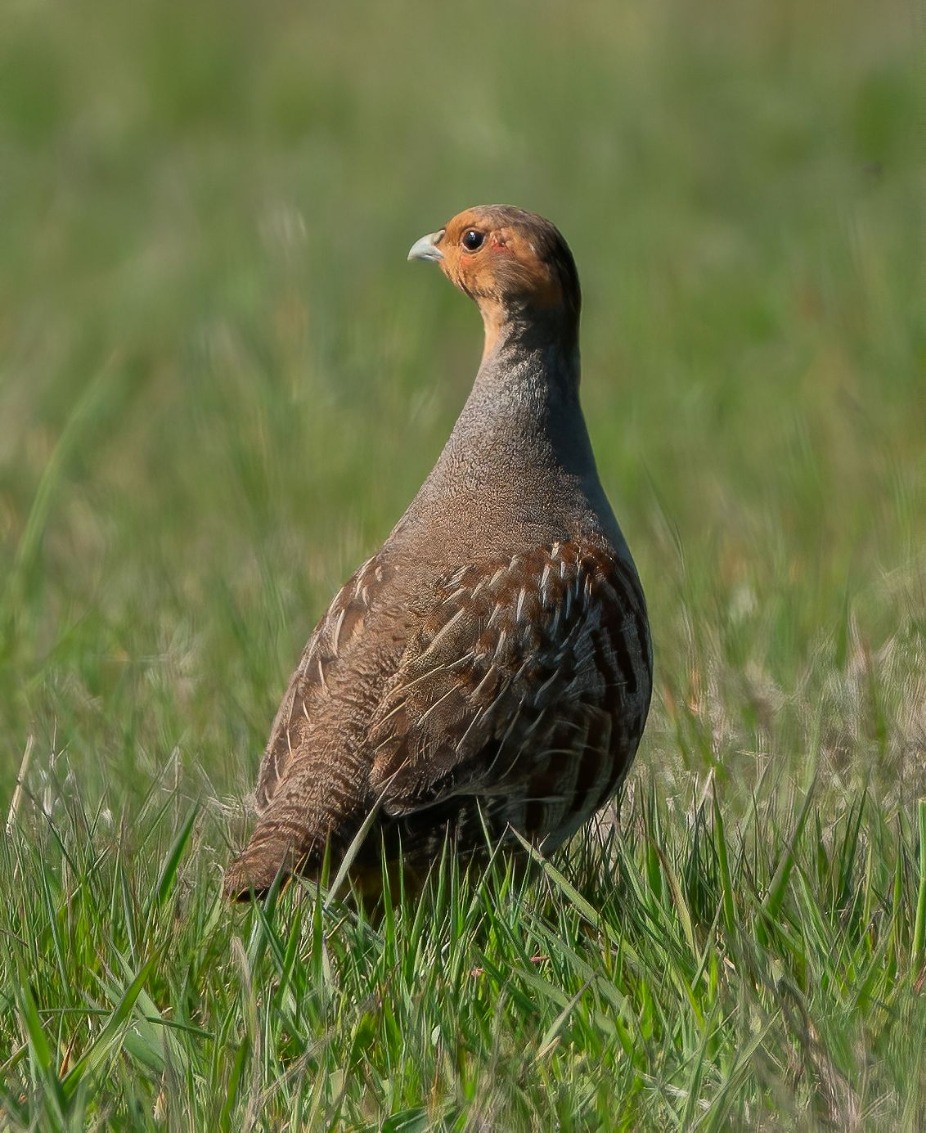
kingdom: Animalia
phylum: Chordata
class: Aves
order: Galliformes
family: Phasianidae
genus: Perdix
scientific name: Perdix perdix
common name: Agerhøne
